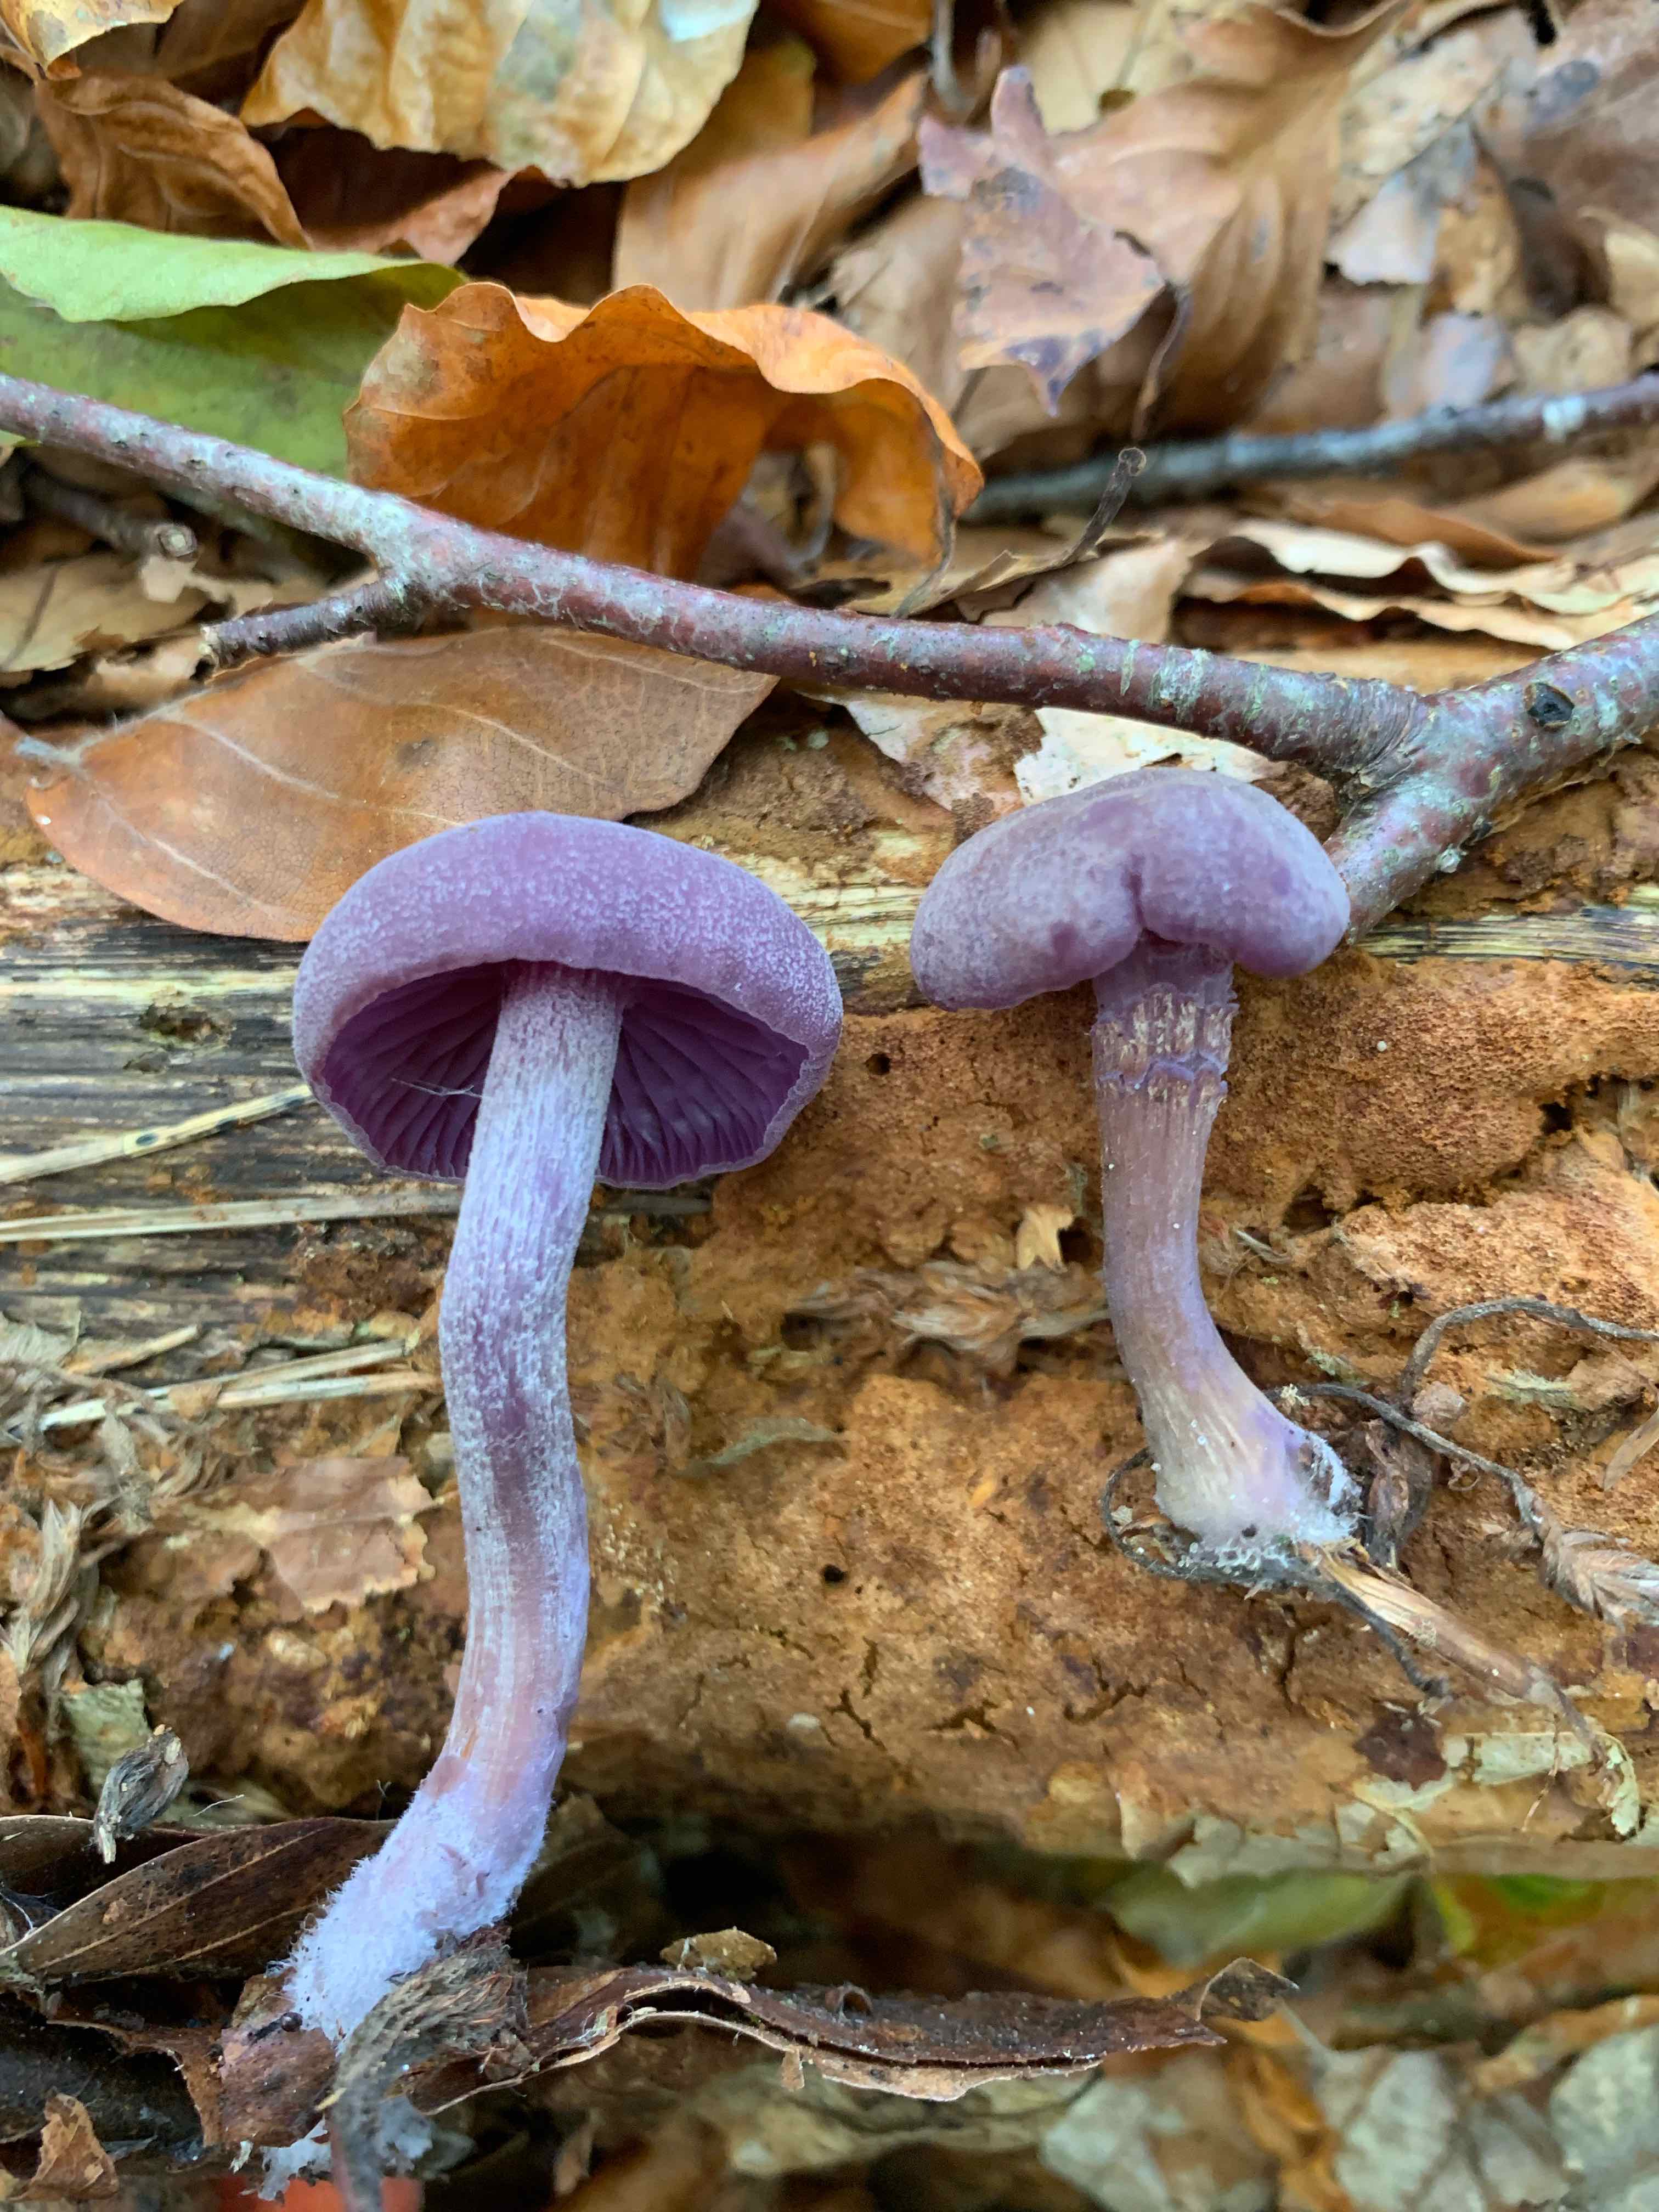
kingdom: Fungi
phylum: Basidiomycota
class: Agaricomycetes
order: Agaricales
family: Hydnangiaceae
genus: Laccaria
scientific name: Laccaria amethystina
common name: violet ametysthat
